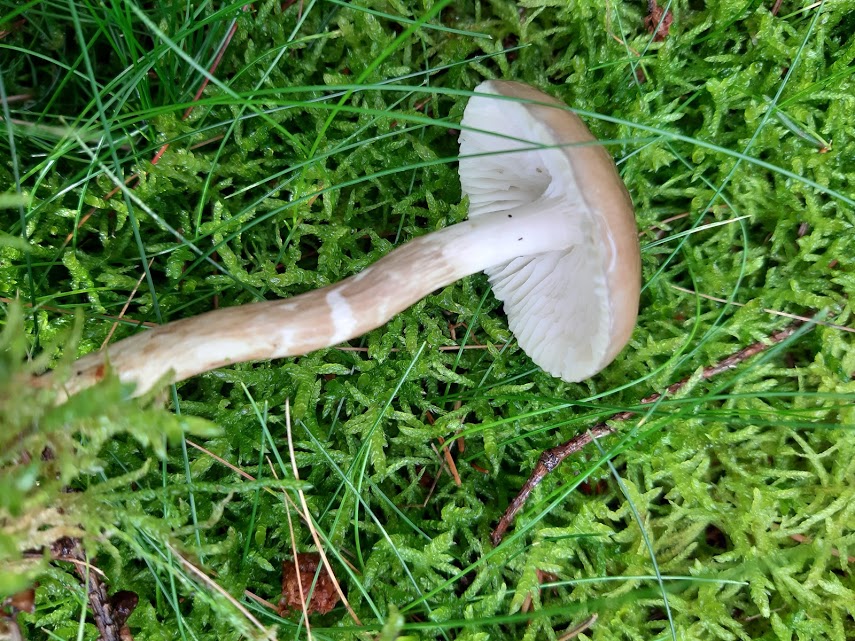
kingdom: Fungi
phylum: Basidiomycota
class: Agaricomycetes
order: Agaricales
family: Hygrophoraceae
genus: Hygrophorus
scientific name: Hygrophorus olivaceoalbus
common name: hvidbrun sneglehat
